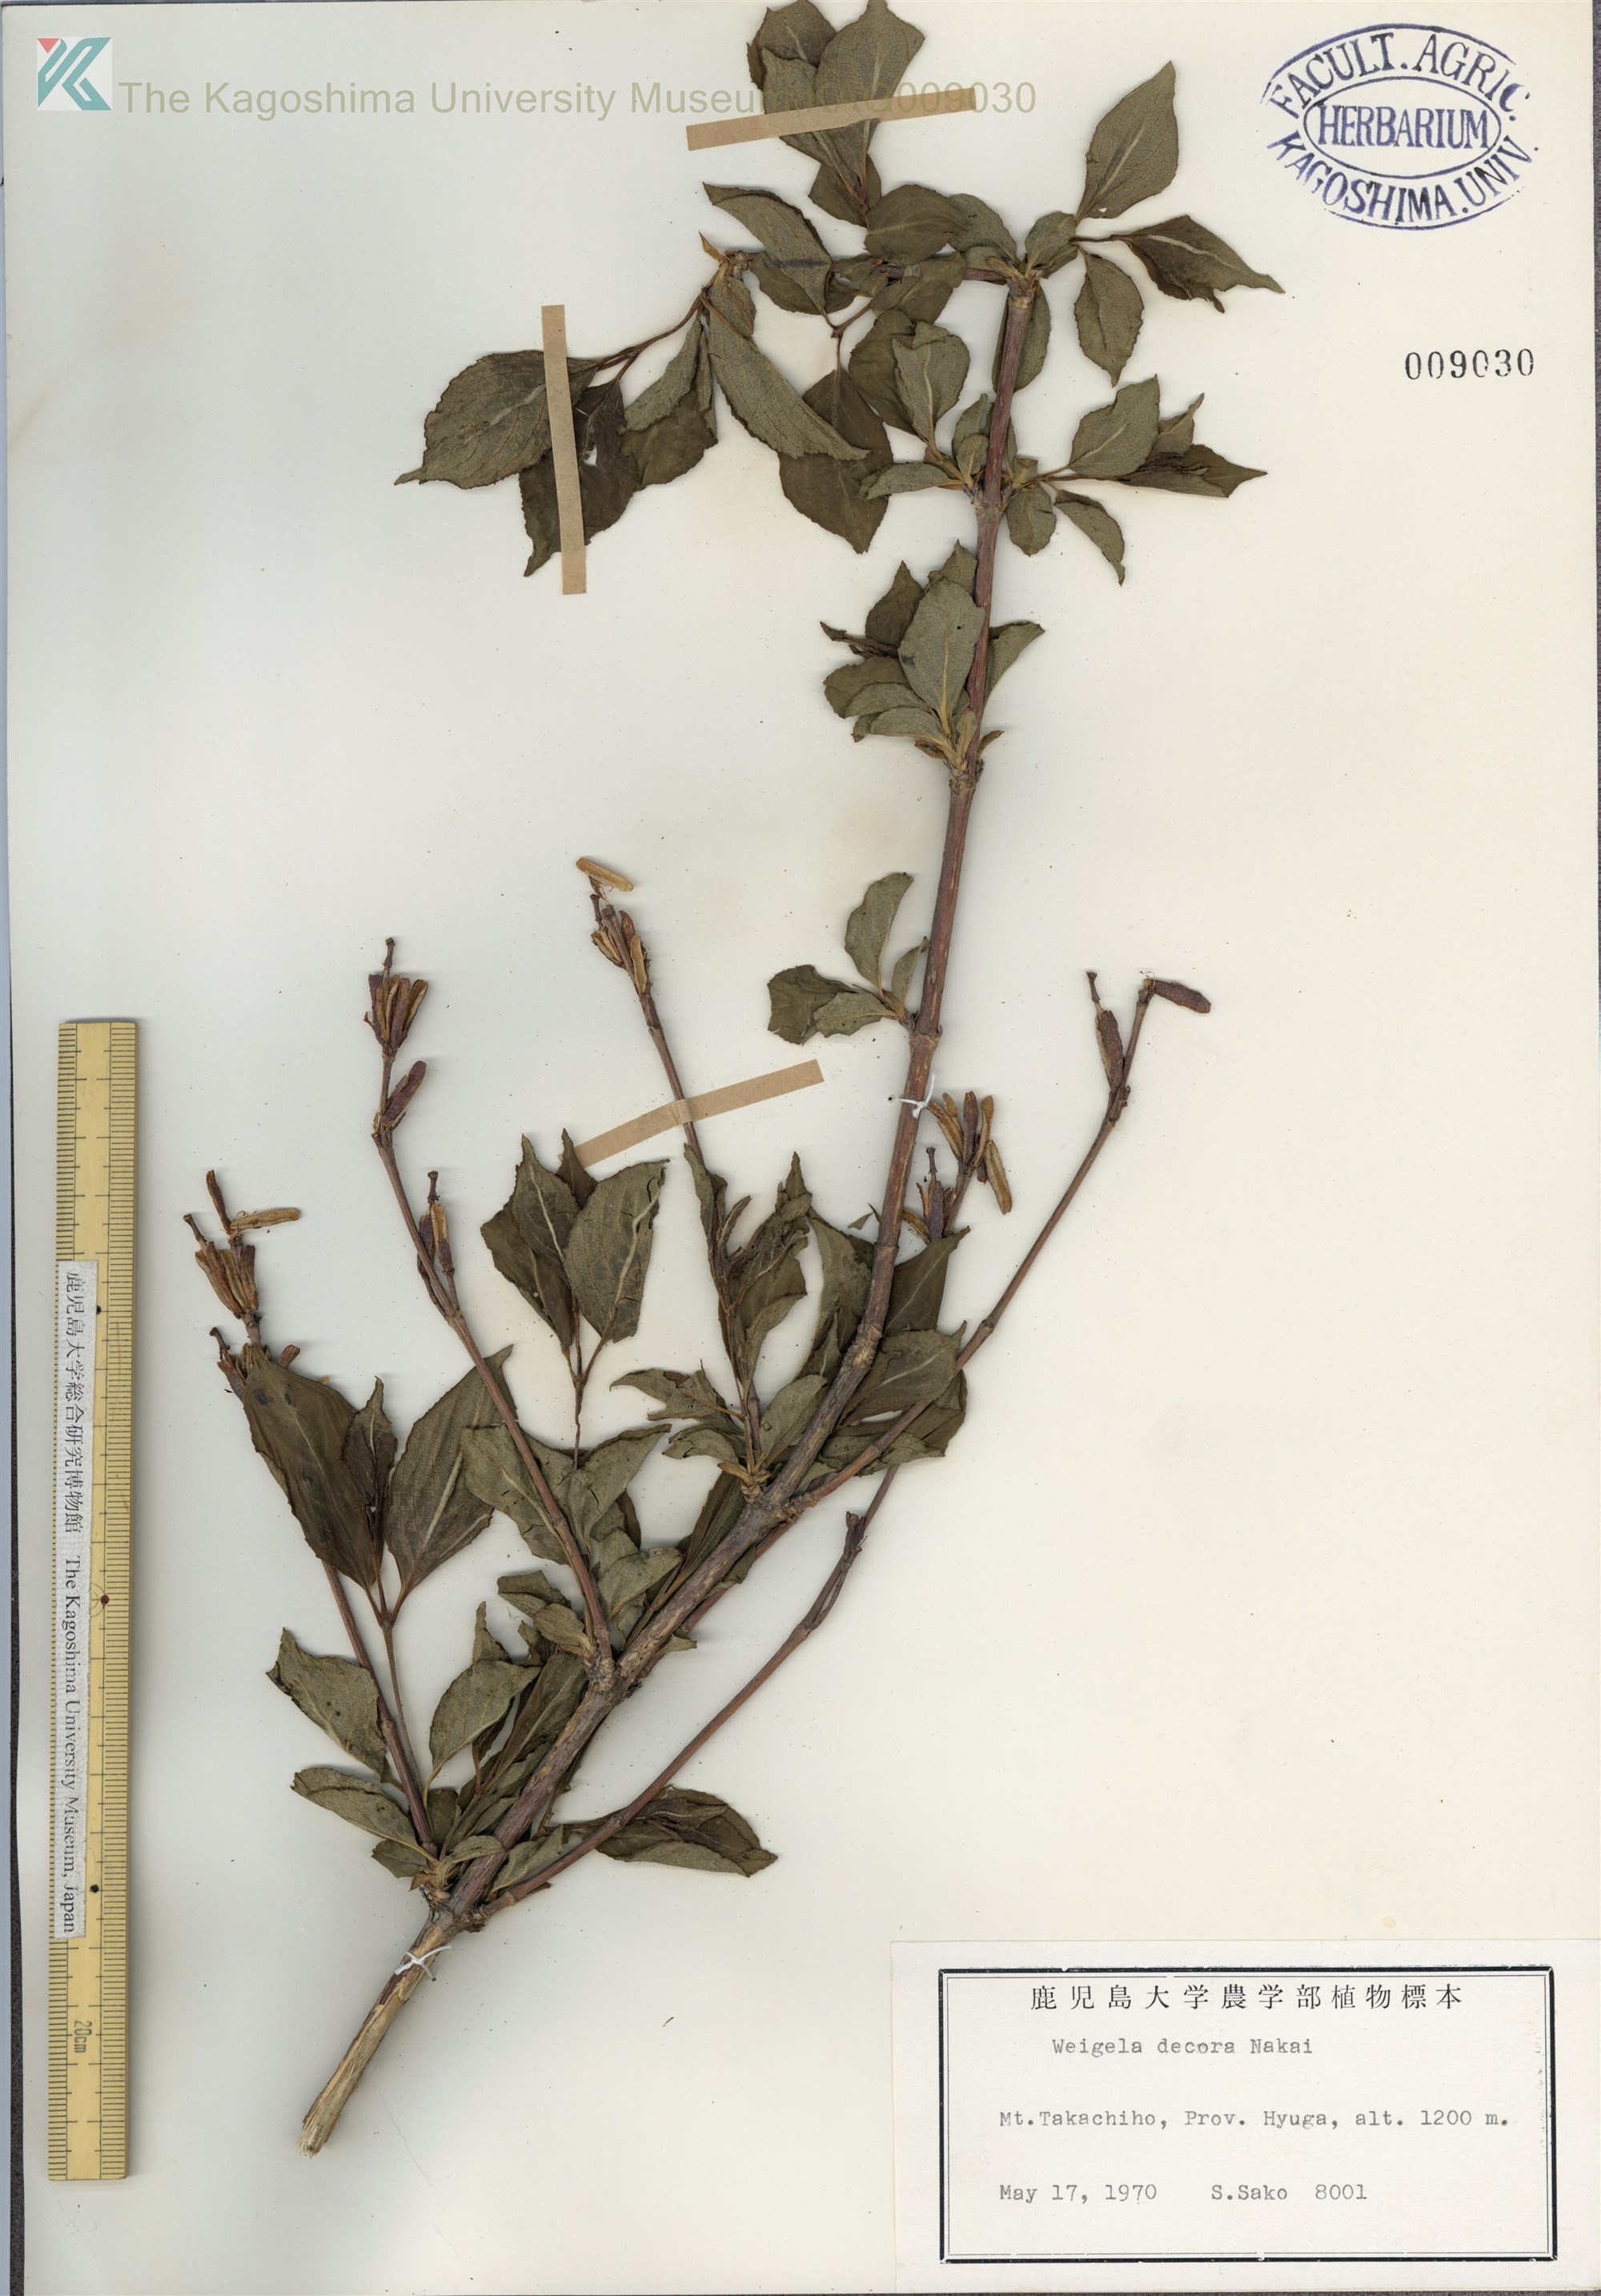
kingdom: Plantae
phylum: Tracheophyta
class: Magnoliopsida
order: Dipsacales
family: Caprifoliaceae
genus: Weigela
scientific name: Weigela decora
